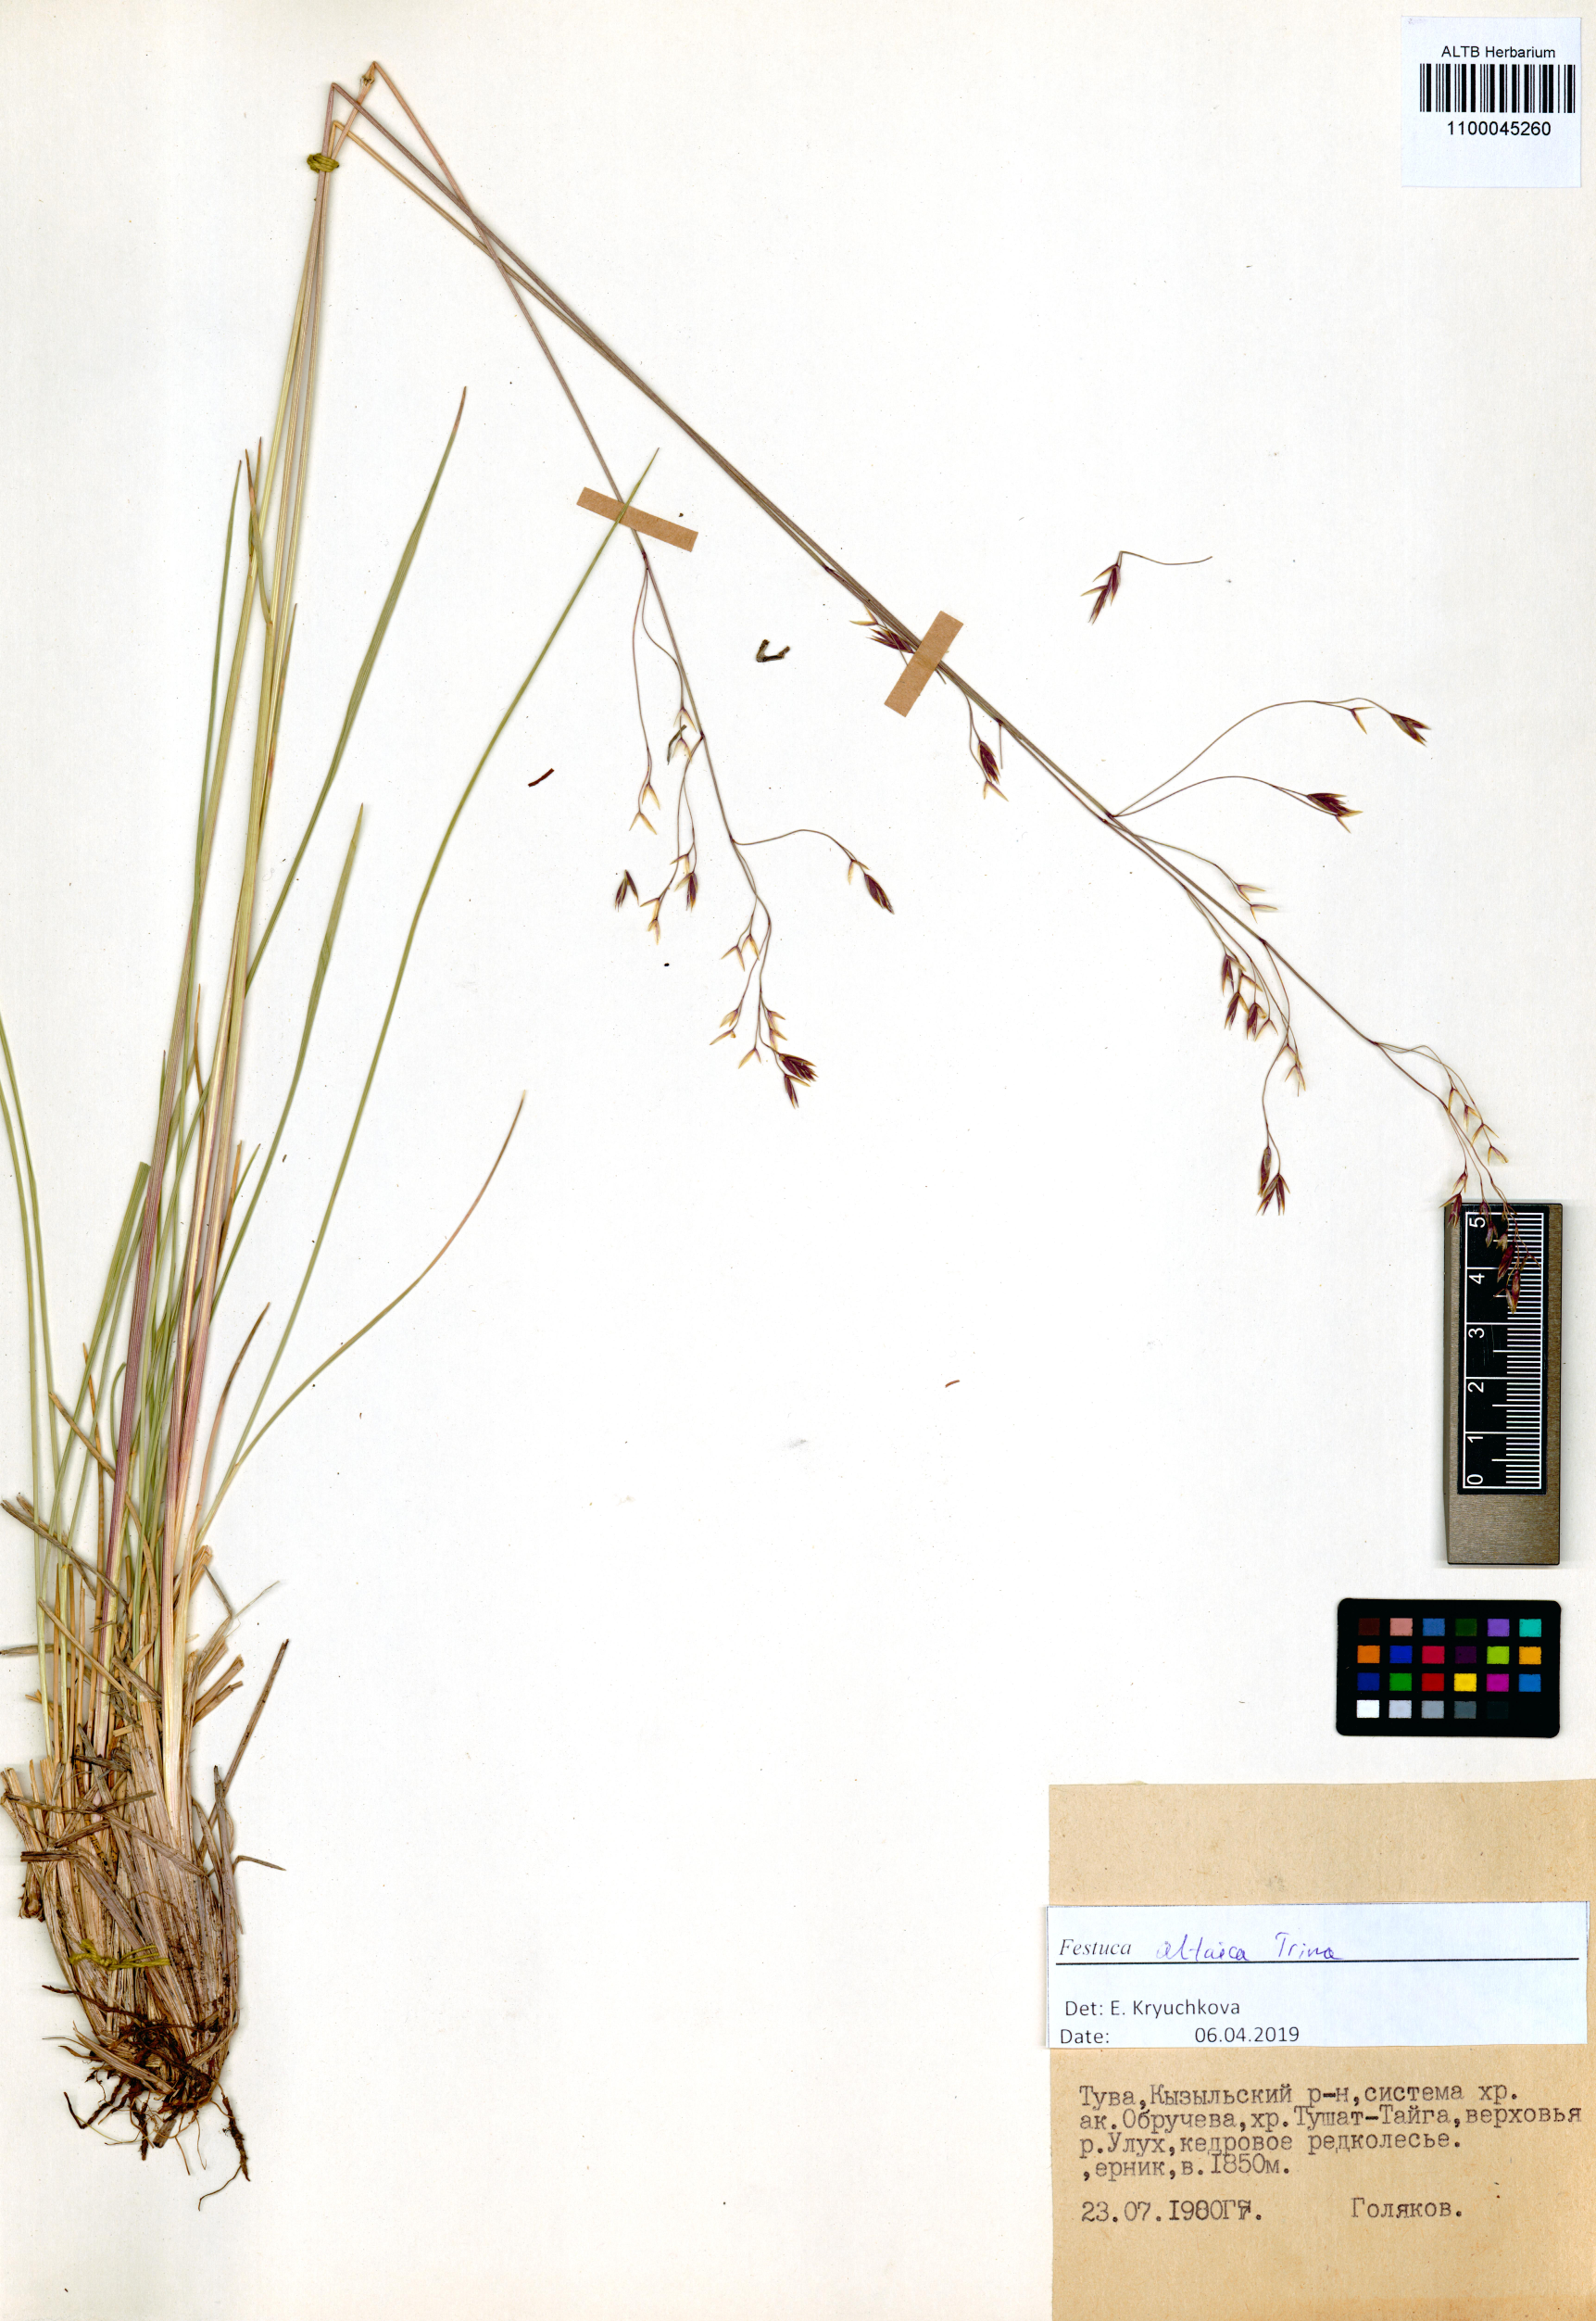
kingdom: Plantae
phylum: Tracheophyta
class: Liliopsida
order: Poales
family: Poaceae
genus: Festuca
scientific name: Festuca altaica
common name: Northern rough fescue
